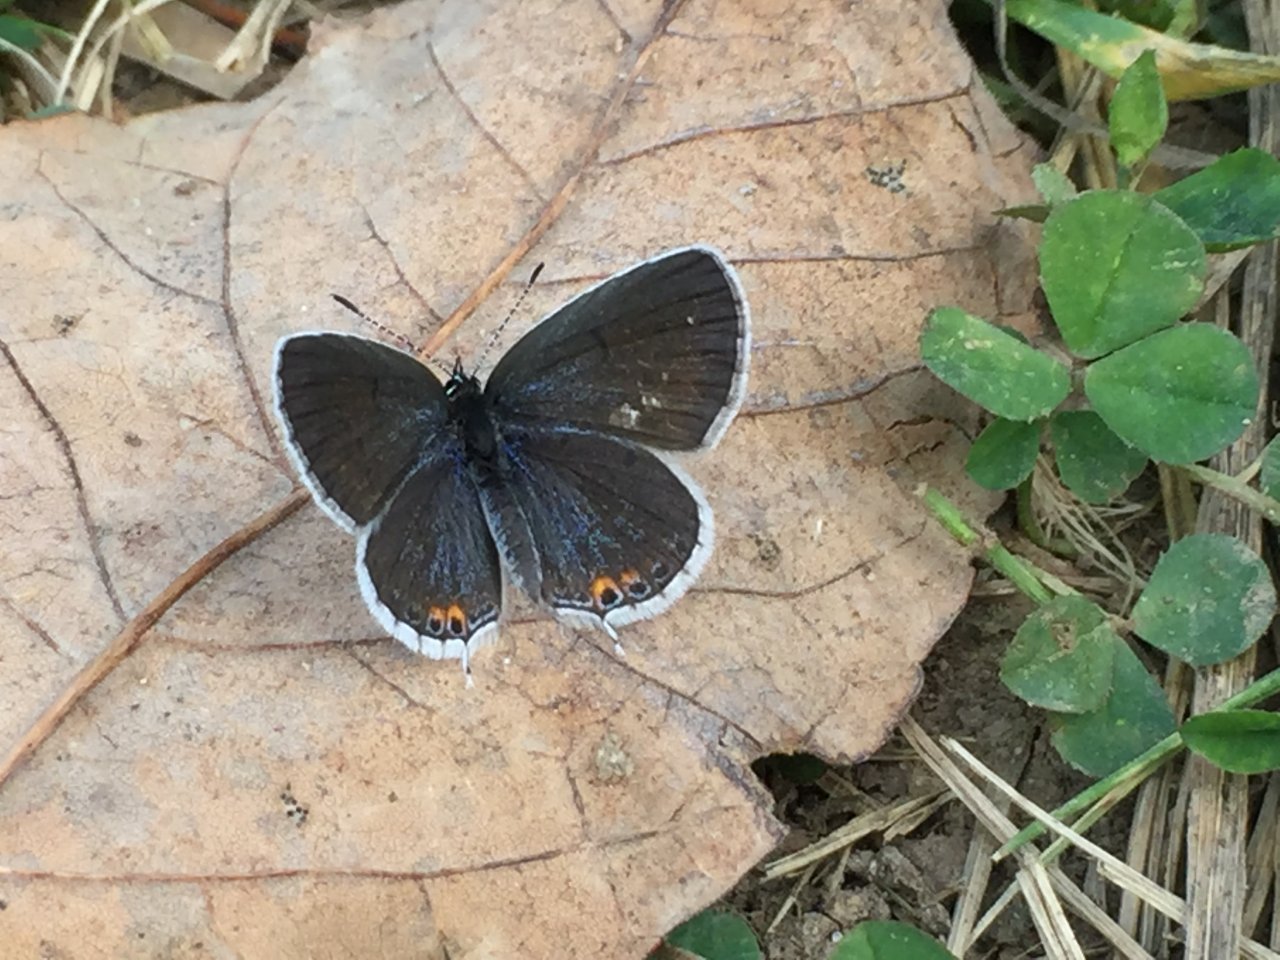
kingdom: Animalia
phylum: Arthropoda
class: Insecta
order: Lepidoptera
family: Lycaenidae
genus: Elkalyce
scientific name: Elkalyce comyntas
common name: Eastern Tailed-Blue
